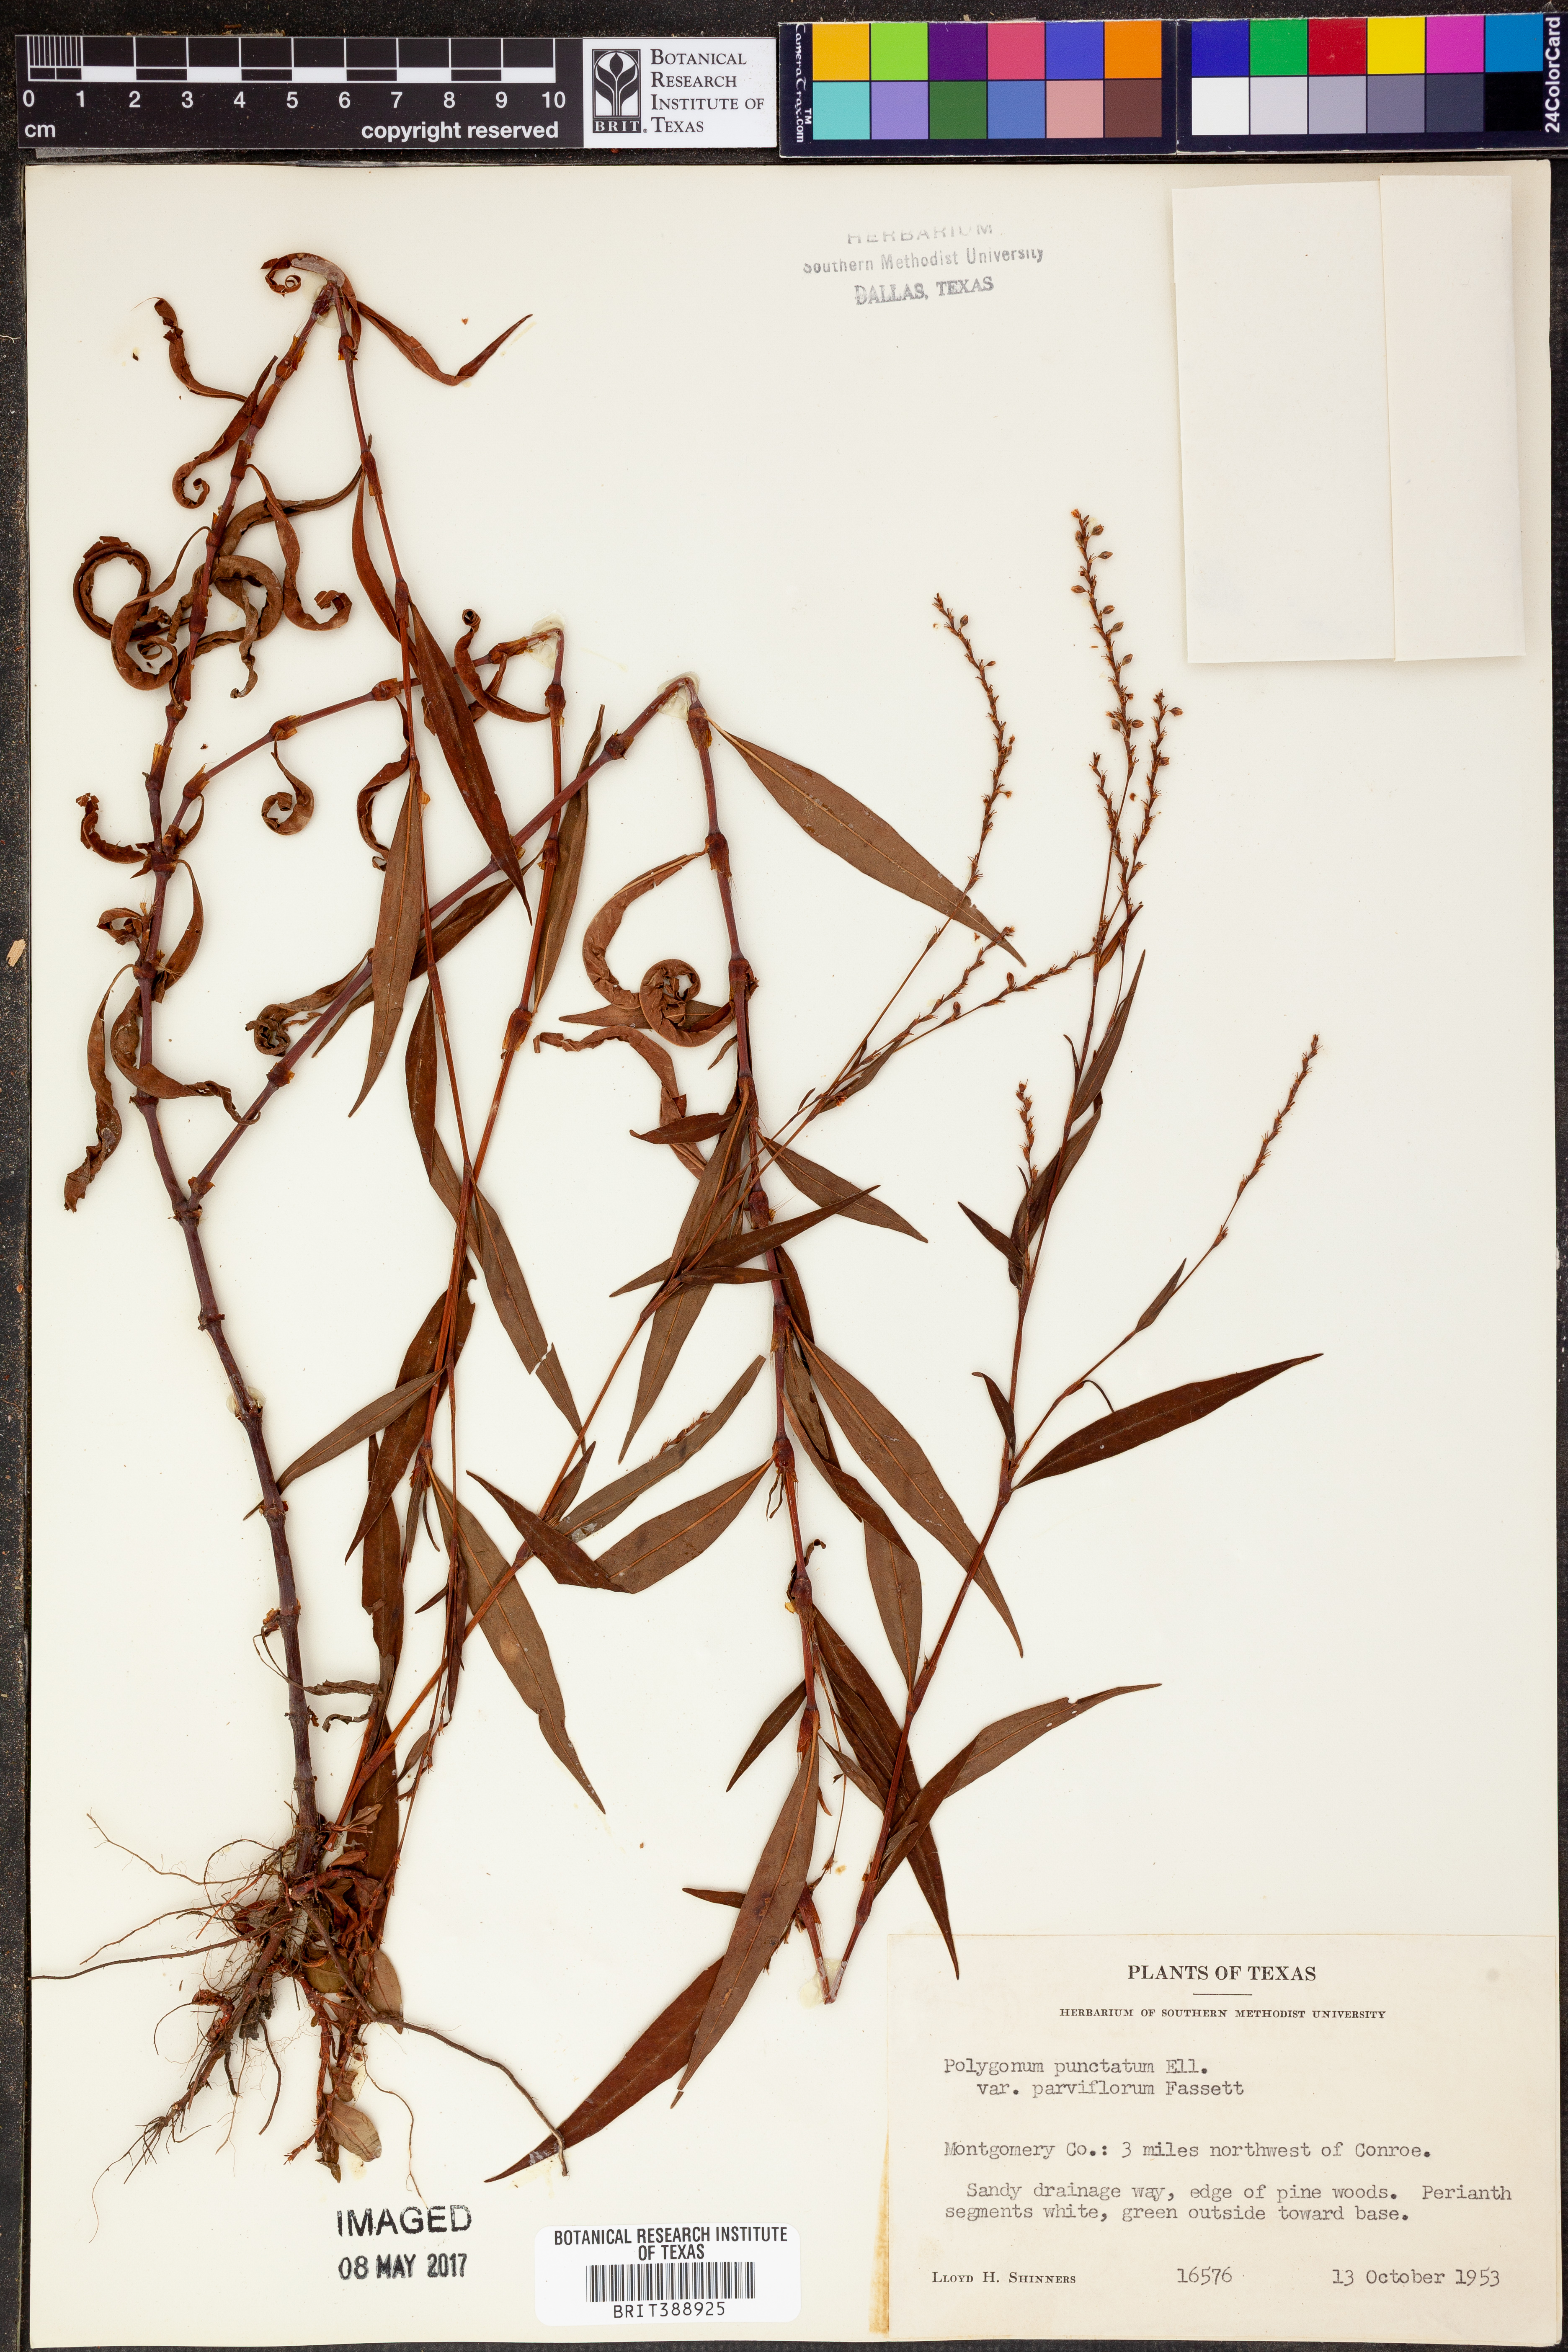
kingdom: Plantae
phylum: Tracheophyta
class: Magnoliopsida
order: Caryophyllales
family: Polygonaceae
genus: Persicaria
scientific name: Persicaria punctata
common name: Dotted smartweed
